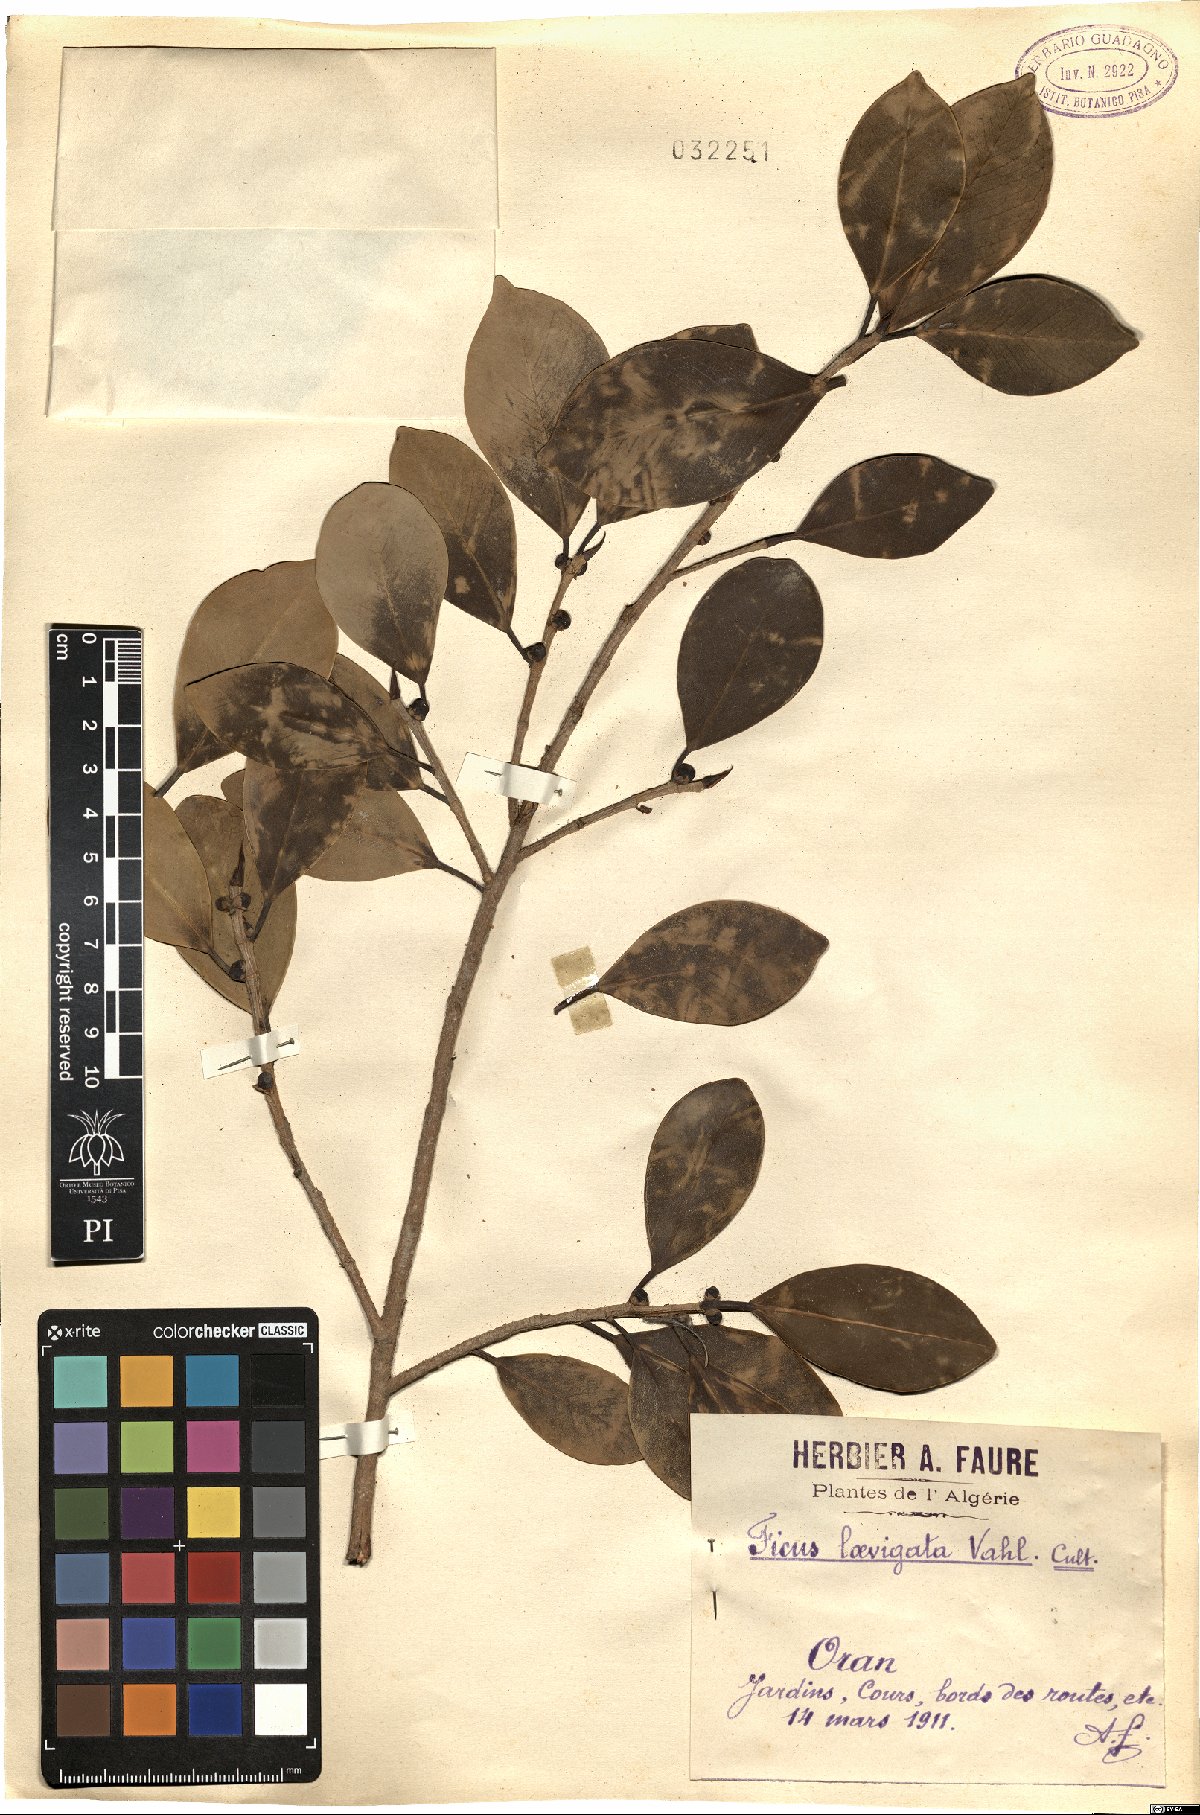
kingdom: Plantae
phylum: Tracheophyta
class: Magnoliopsida
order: Rosales
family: Moraceae
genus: Ficus
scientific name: Ficus citrifolia
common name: Strangler fig
